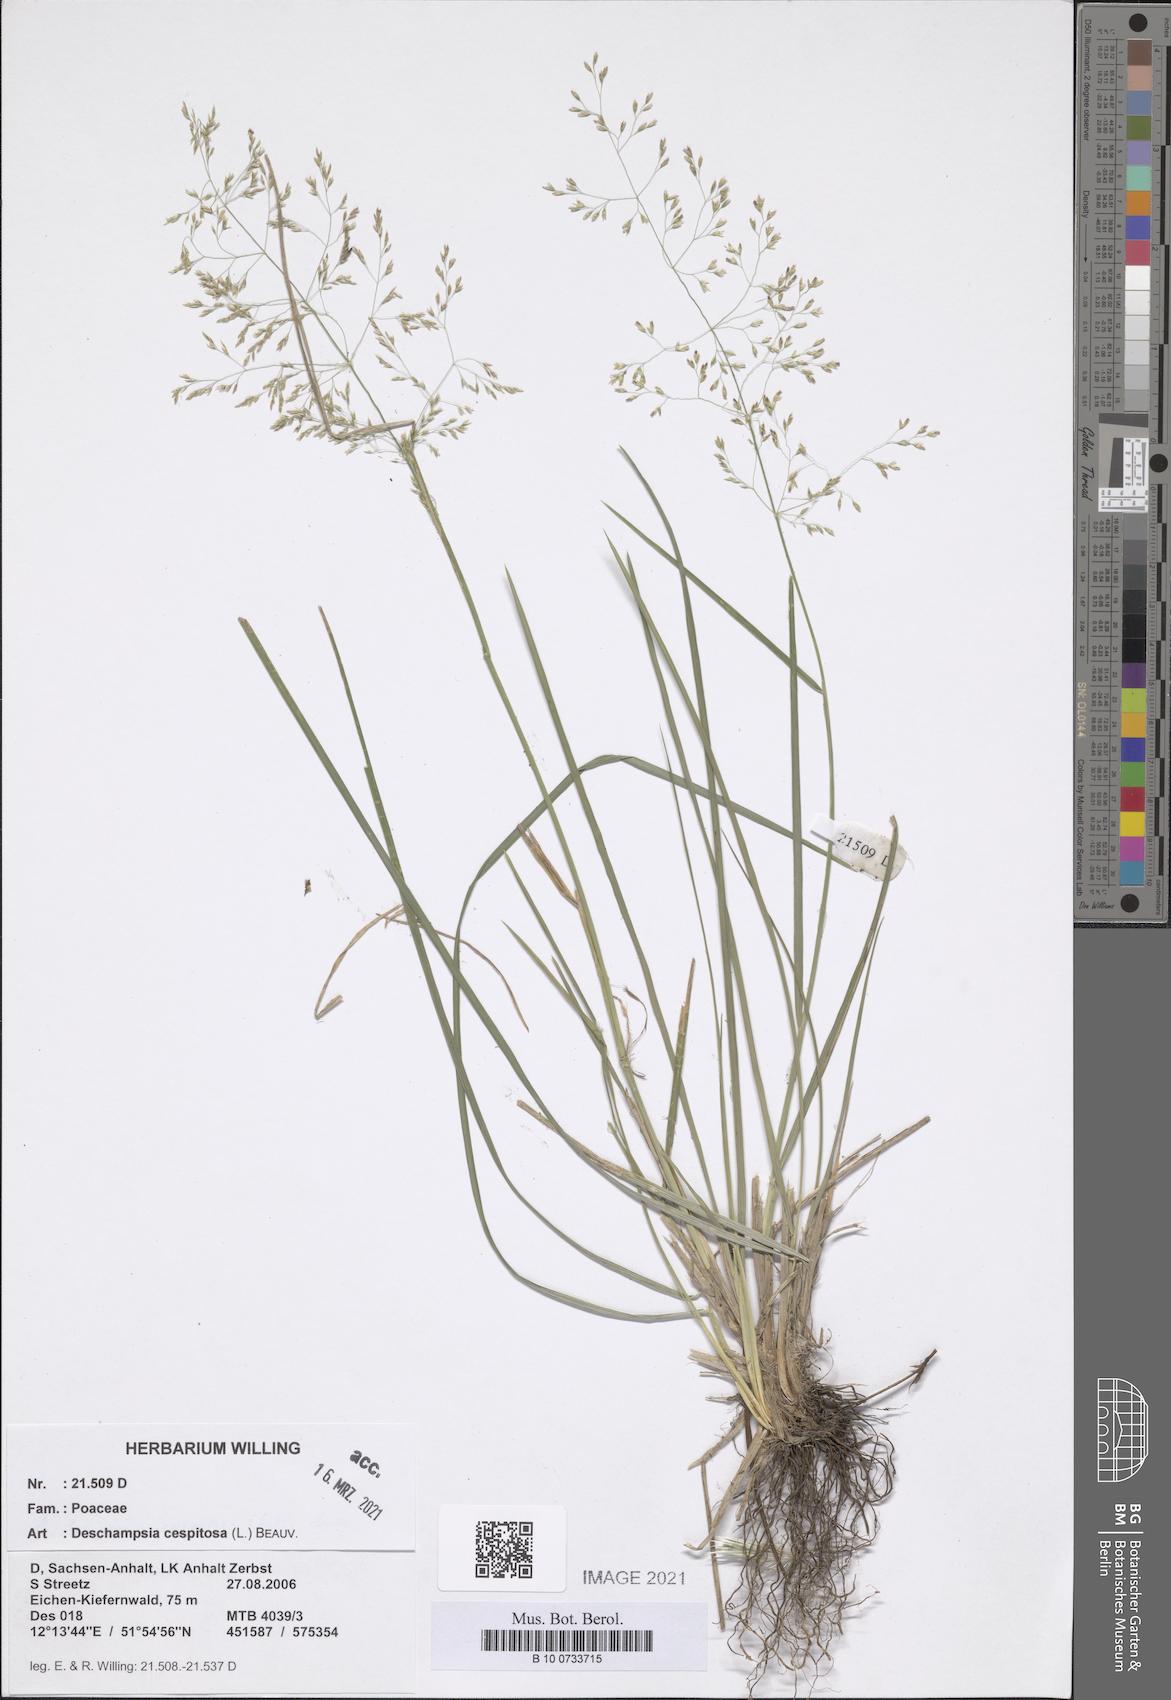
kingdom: Plantae
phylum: Tracheophyta
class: Liliopsida
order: Poales
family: Poaceae
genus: Deschampsia
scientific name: Deschampsia cespitosa
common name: Tufted hair-grass
